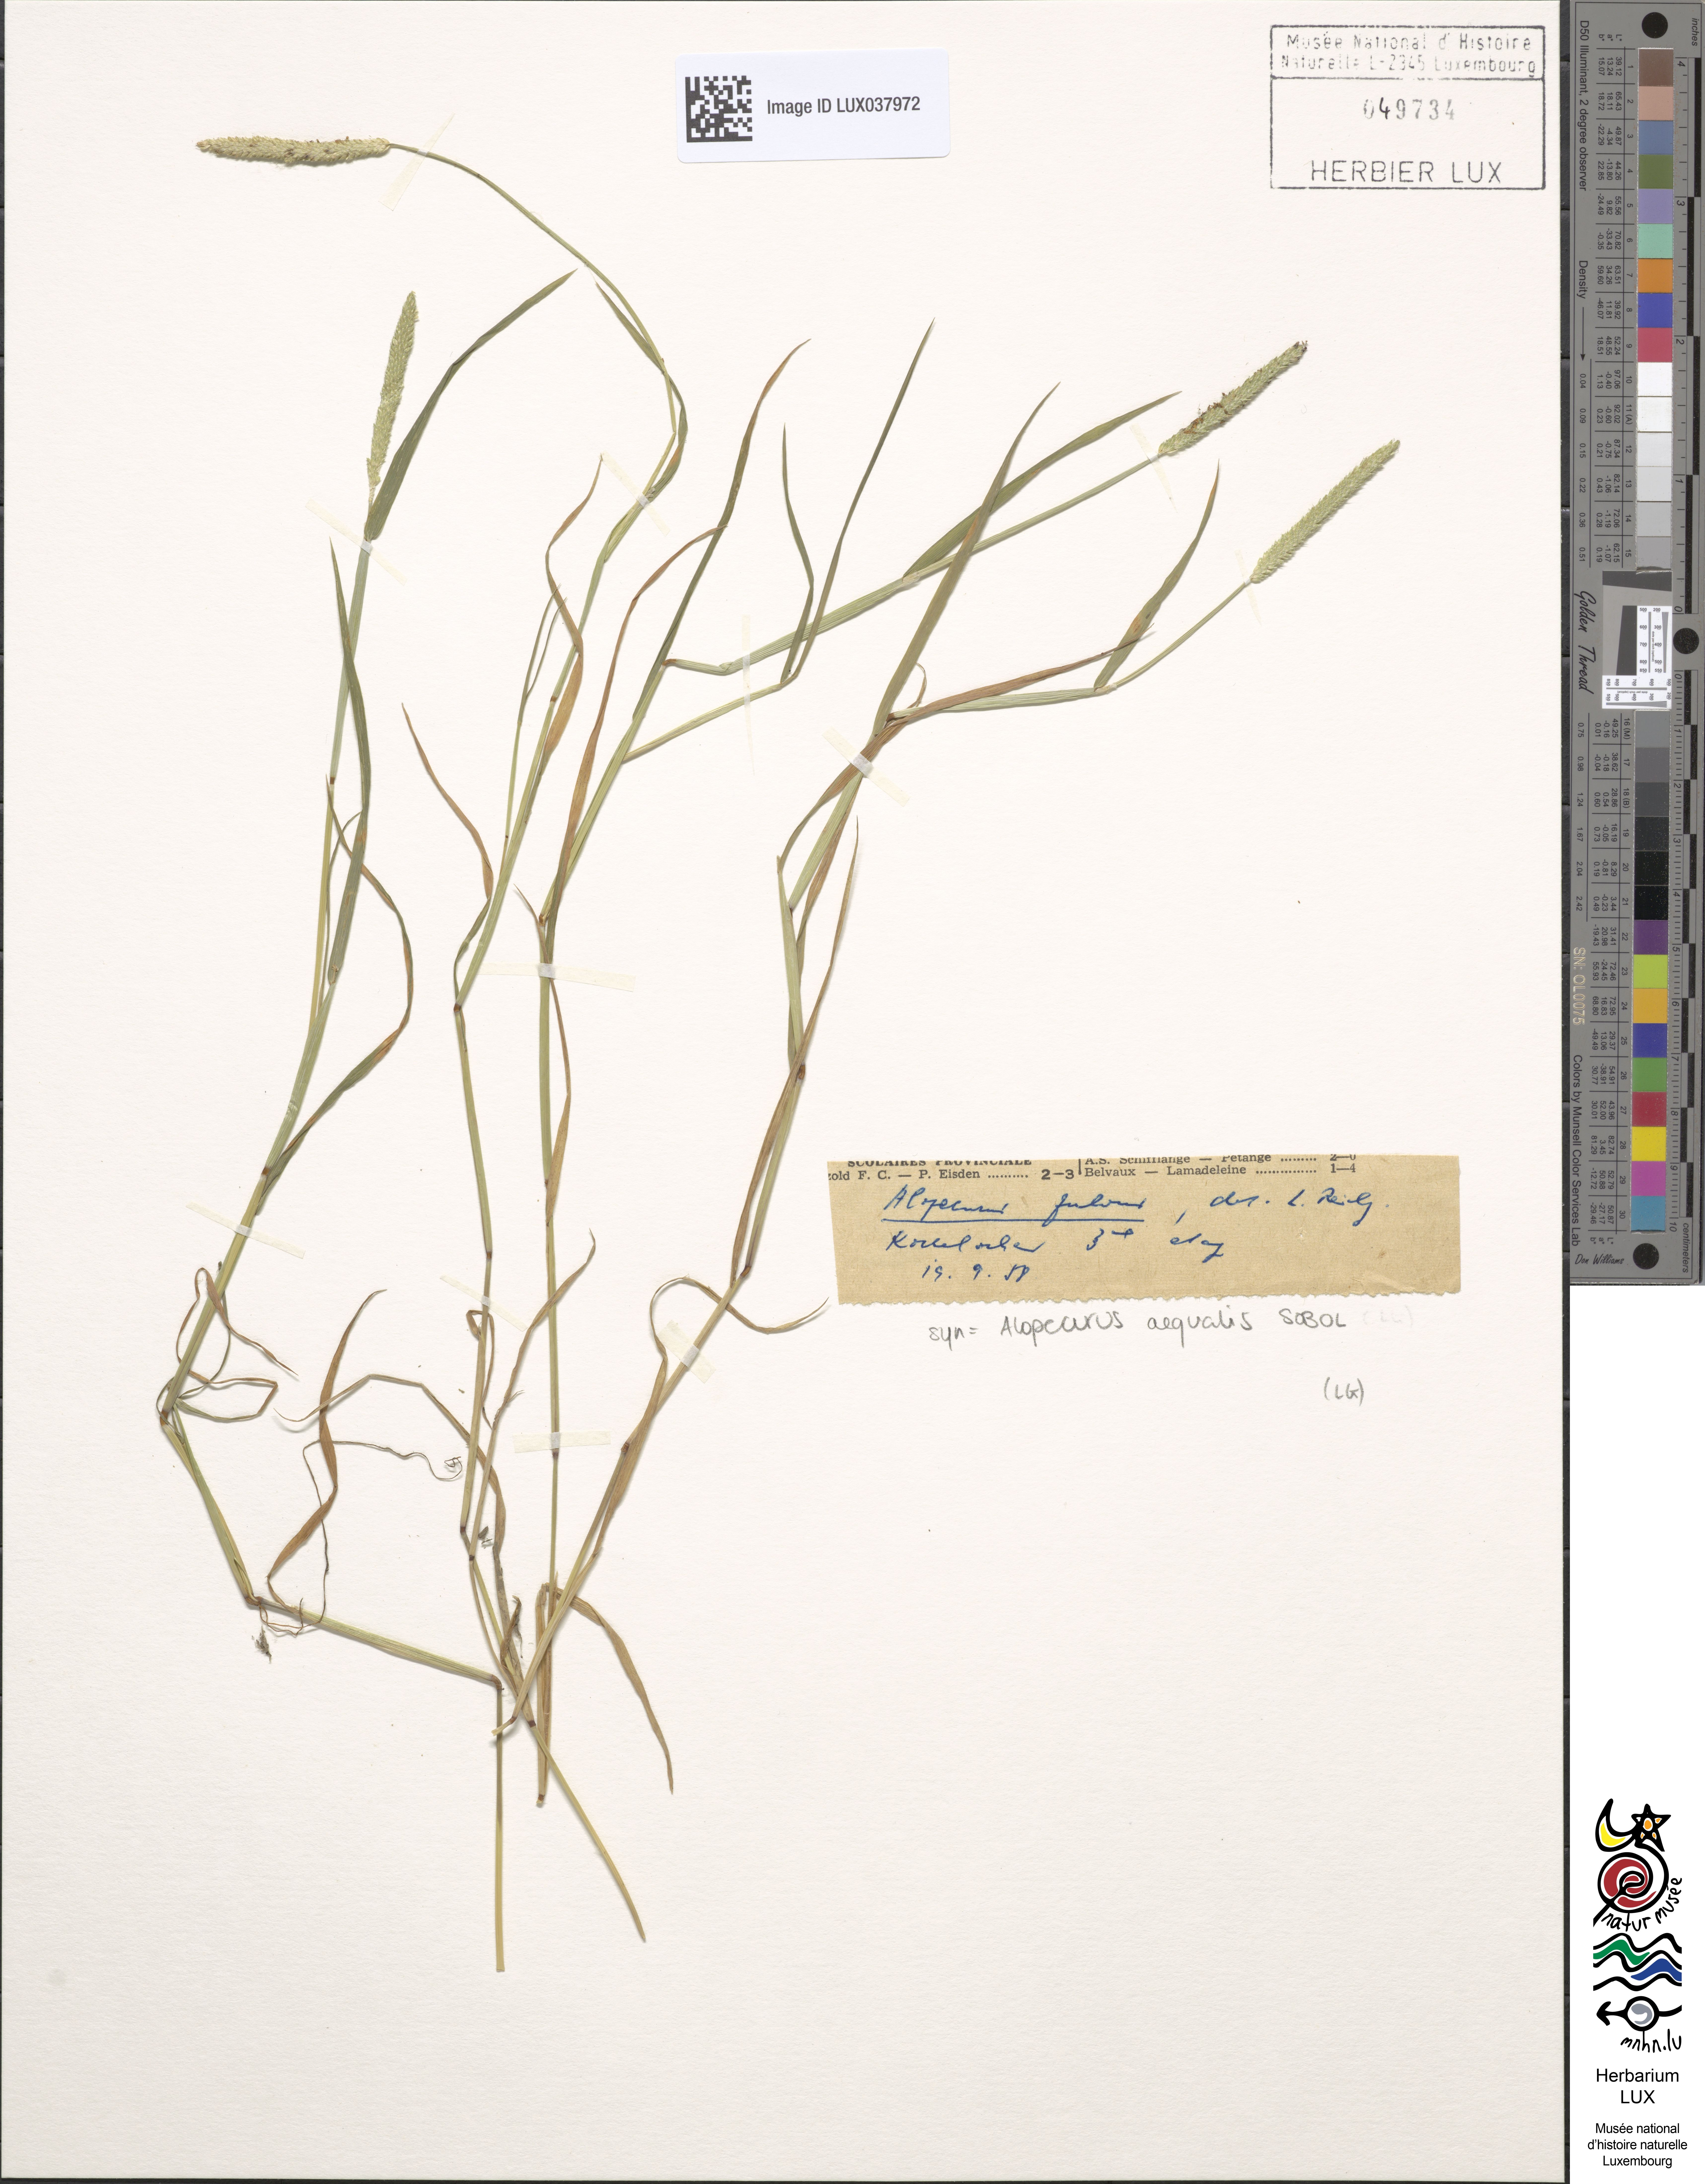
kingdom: Plantae
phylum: Tracheophyta
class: Liliopsida
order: Poales
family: Poaceae
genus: Alopecurus
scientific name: Alopecurus aequalis
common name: Orange foxtail
